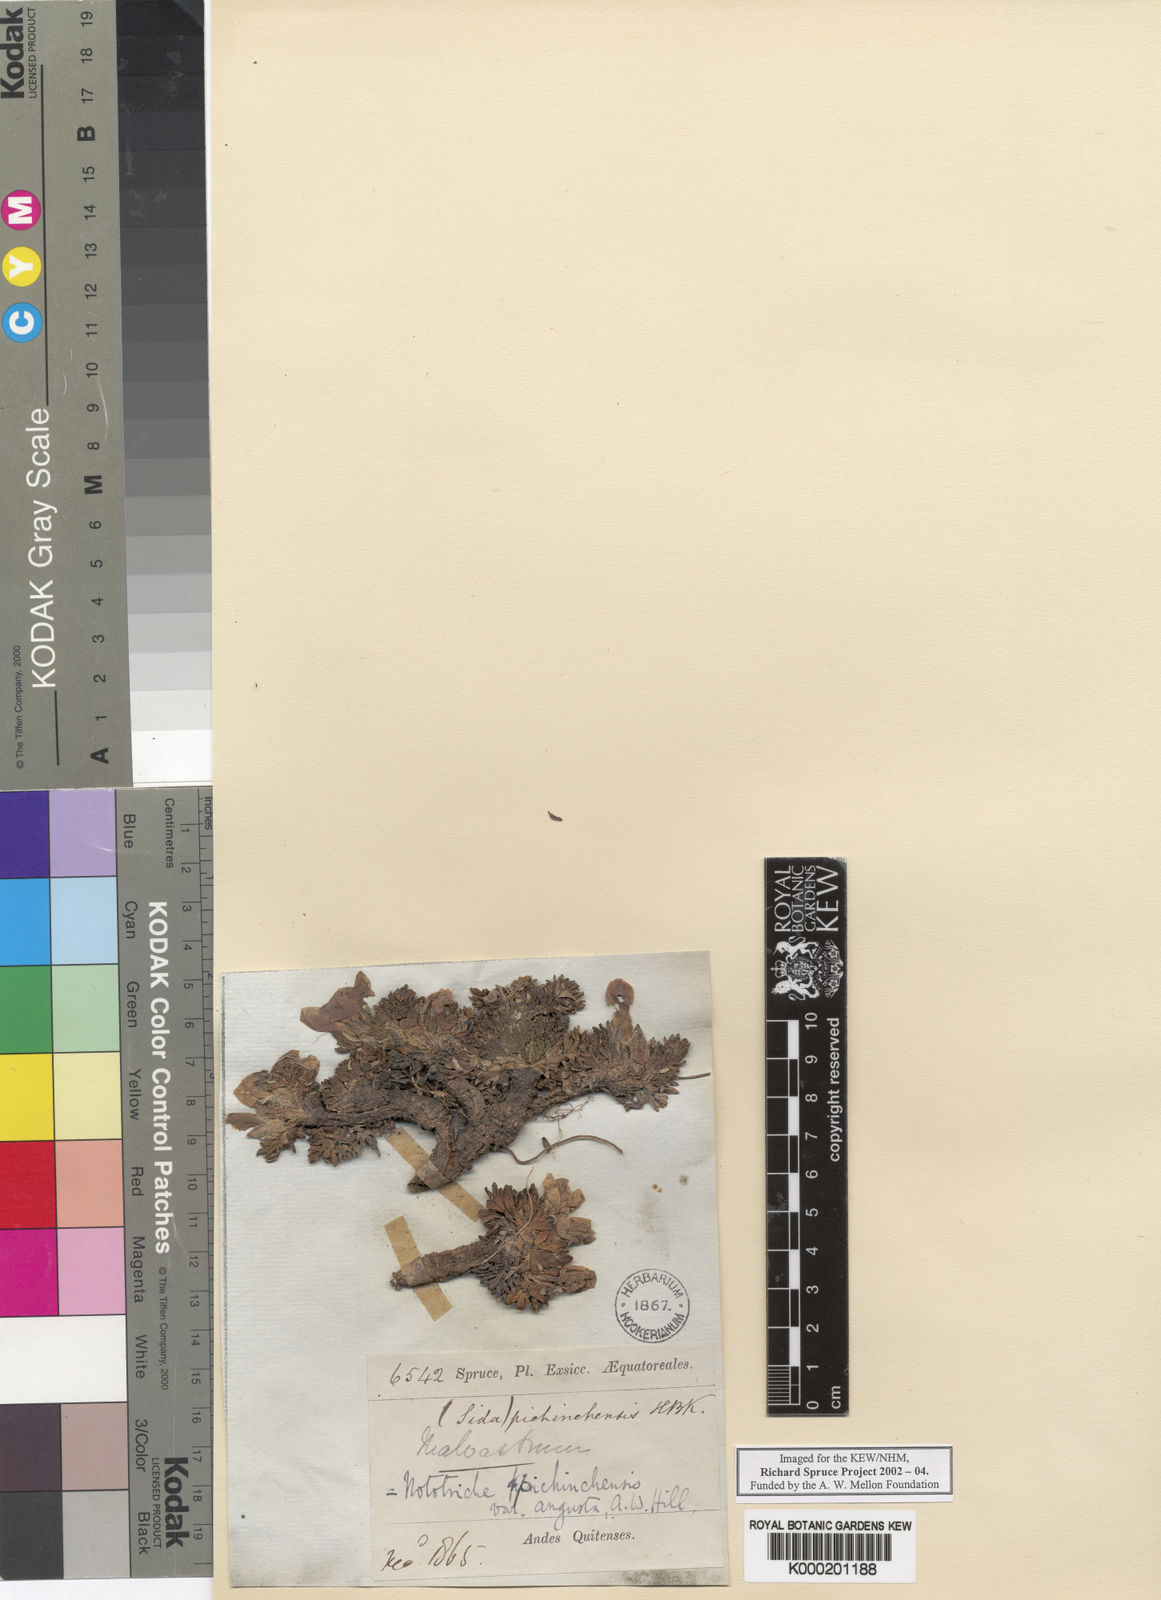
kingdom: Plantae
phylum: Tracheophyta
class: Magnoliopsida
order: Malvales
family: Malvaceae
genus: Nototriche
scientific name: Nototriche phyllanthos
